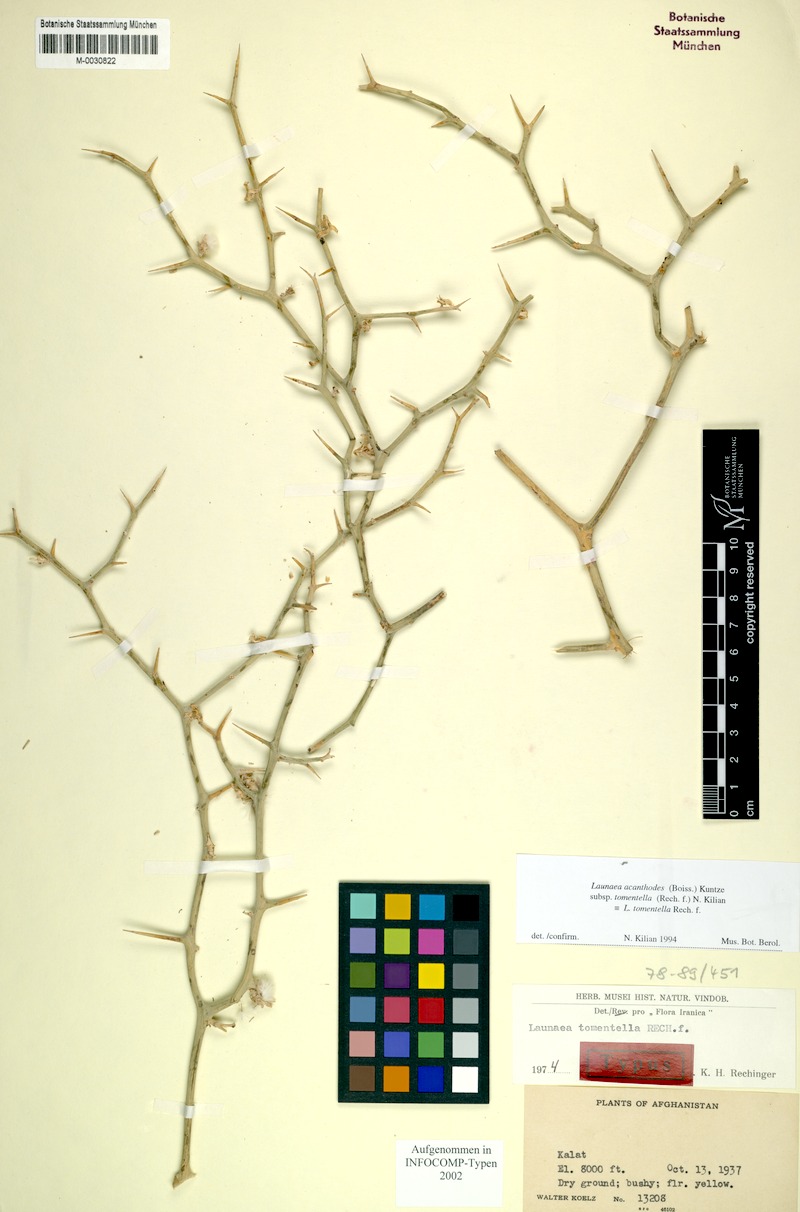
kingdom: Plantae
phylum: Tracheophyta
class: Magnoliopsida
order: Asterales
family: Asteraceae
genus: Launaea
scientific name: Launaea acanthodes
